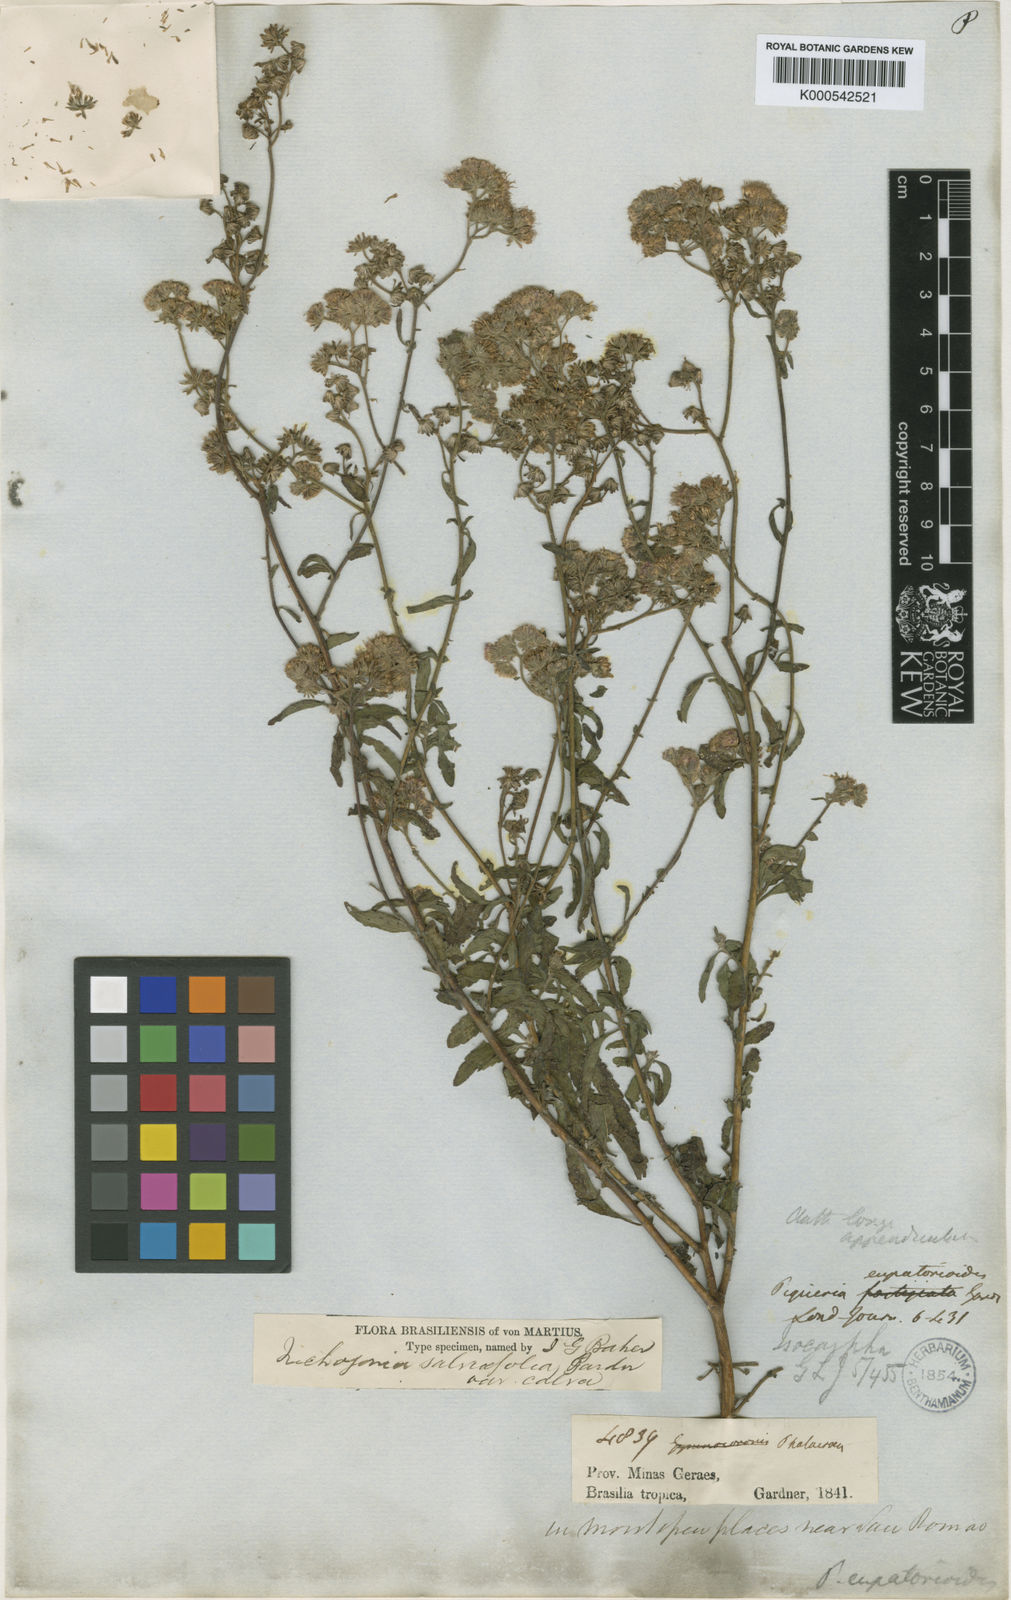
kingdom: Plantae
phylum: Tracheophyta
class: Magnoliopsida
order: Asterales
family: Asteraceae
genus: Trichogonia
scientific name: Trichogonia menthifolia
